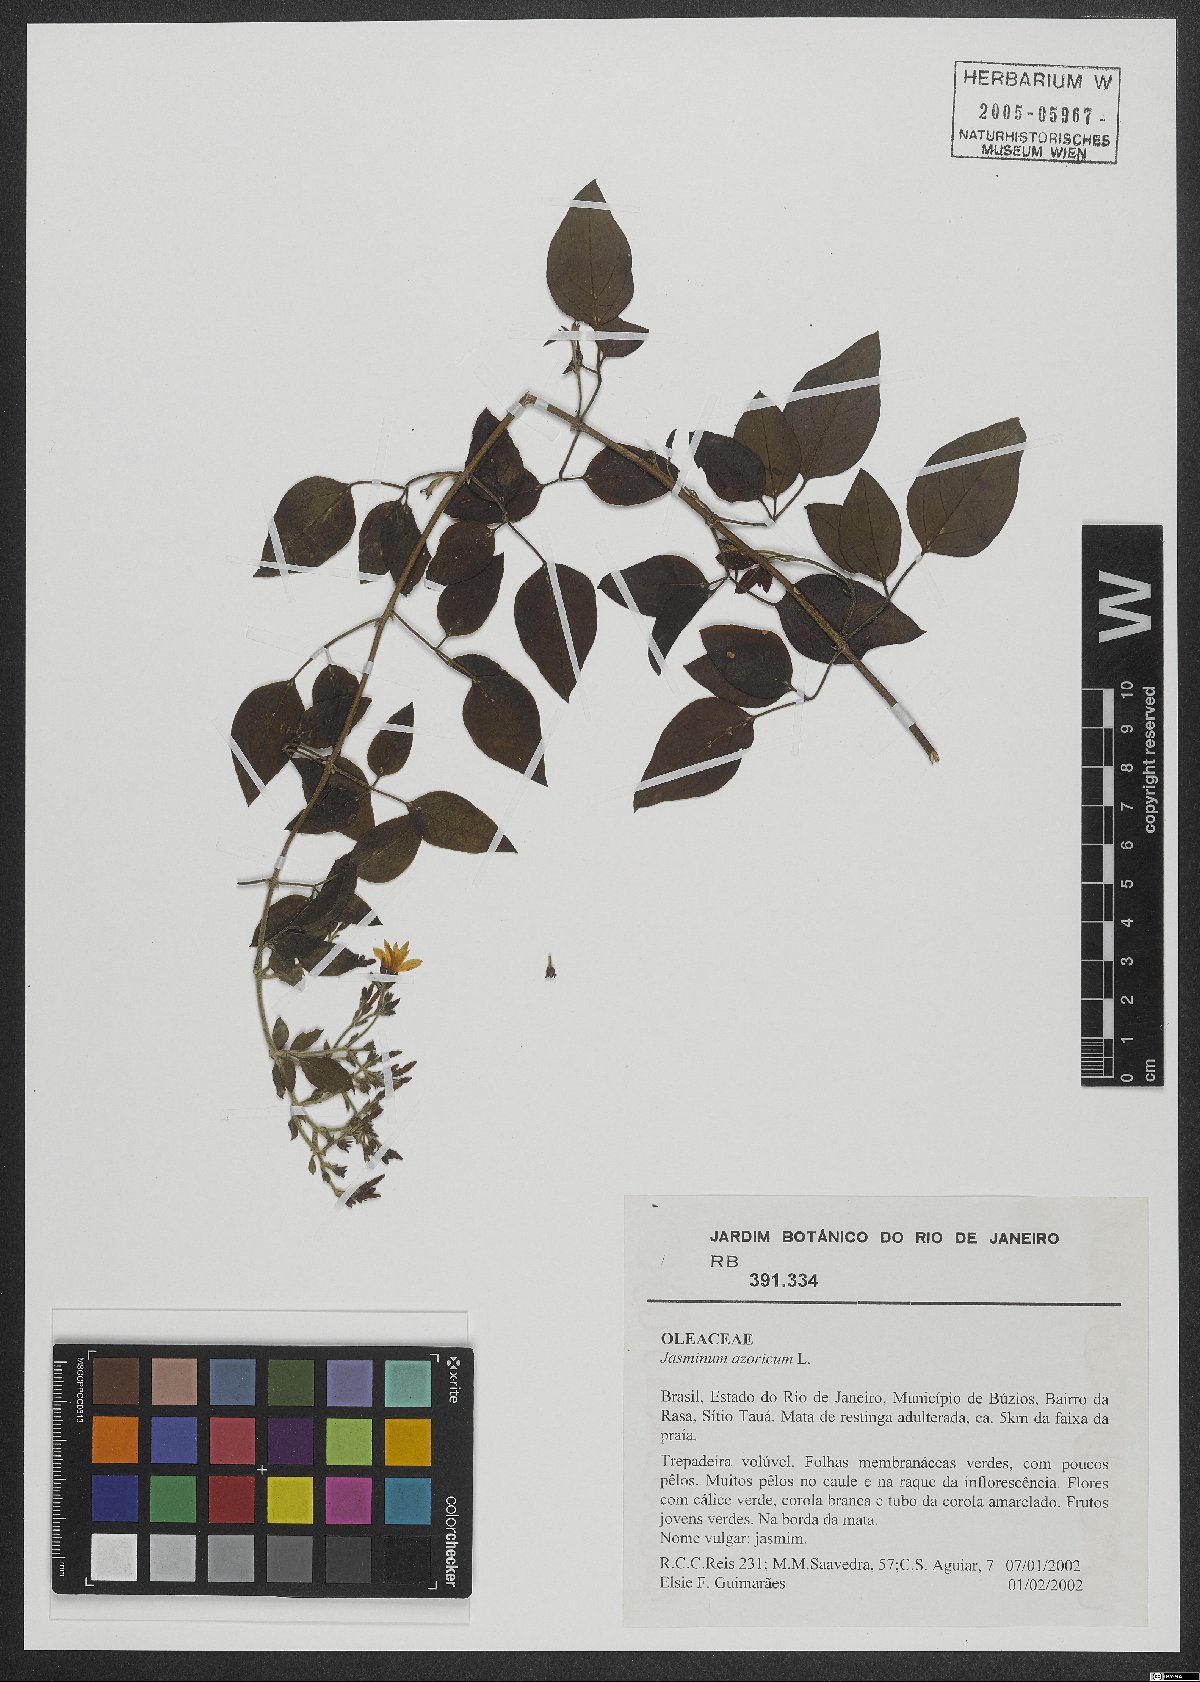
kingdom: Plantae
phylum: Tracheophyta
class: Magnoliopsida
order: Lamiales
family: Oleaceae
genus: Jasminum
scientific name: Jasminum azoricum
